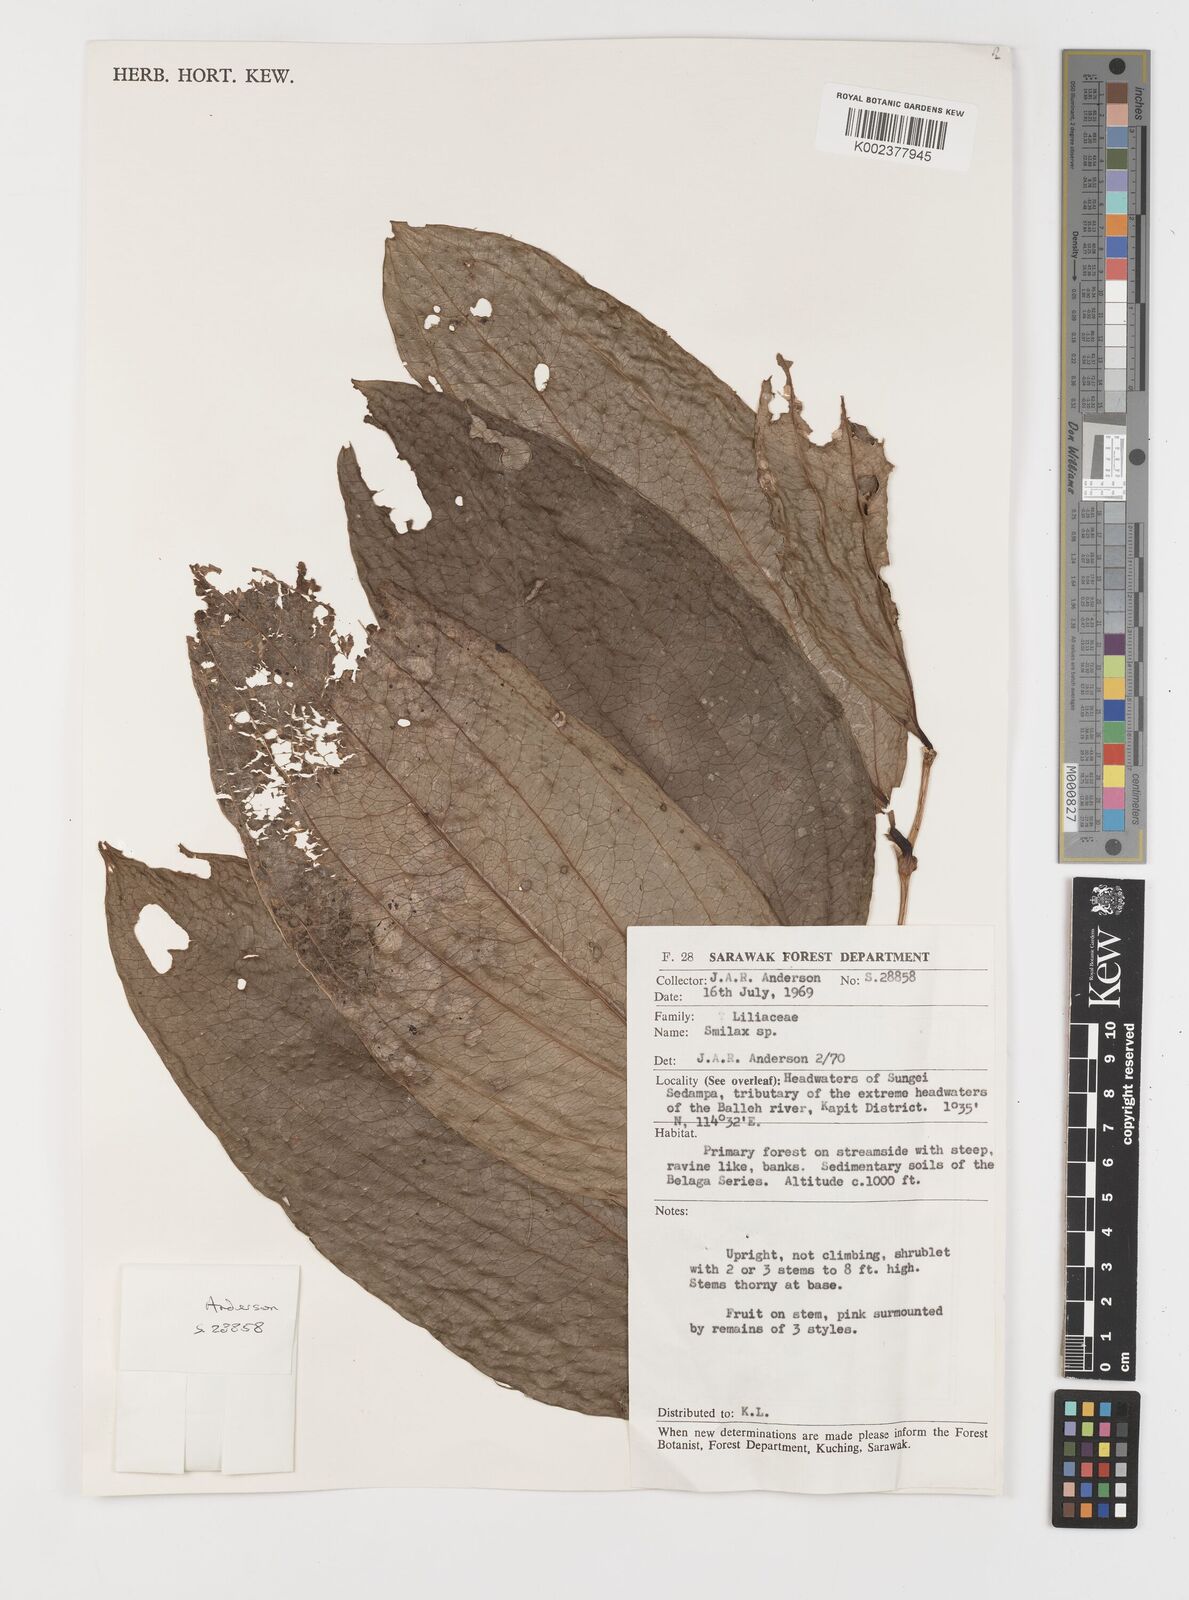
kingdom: Plantae
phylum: Tracheophyta
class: Liliopsida
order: Liliales
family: Smilacaceae
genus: Smilax
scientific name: Smilax
